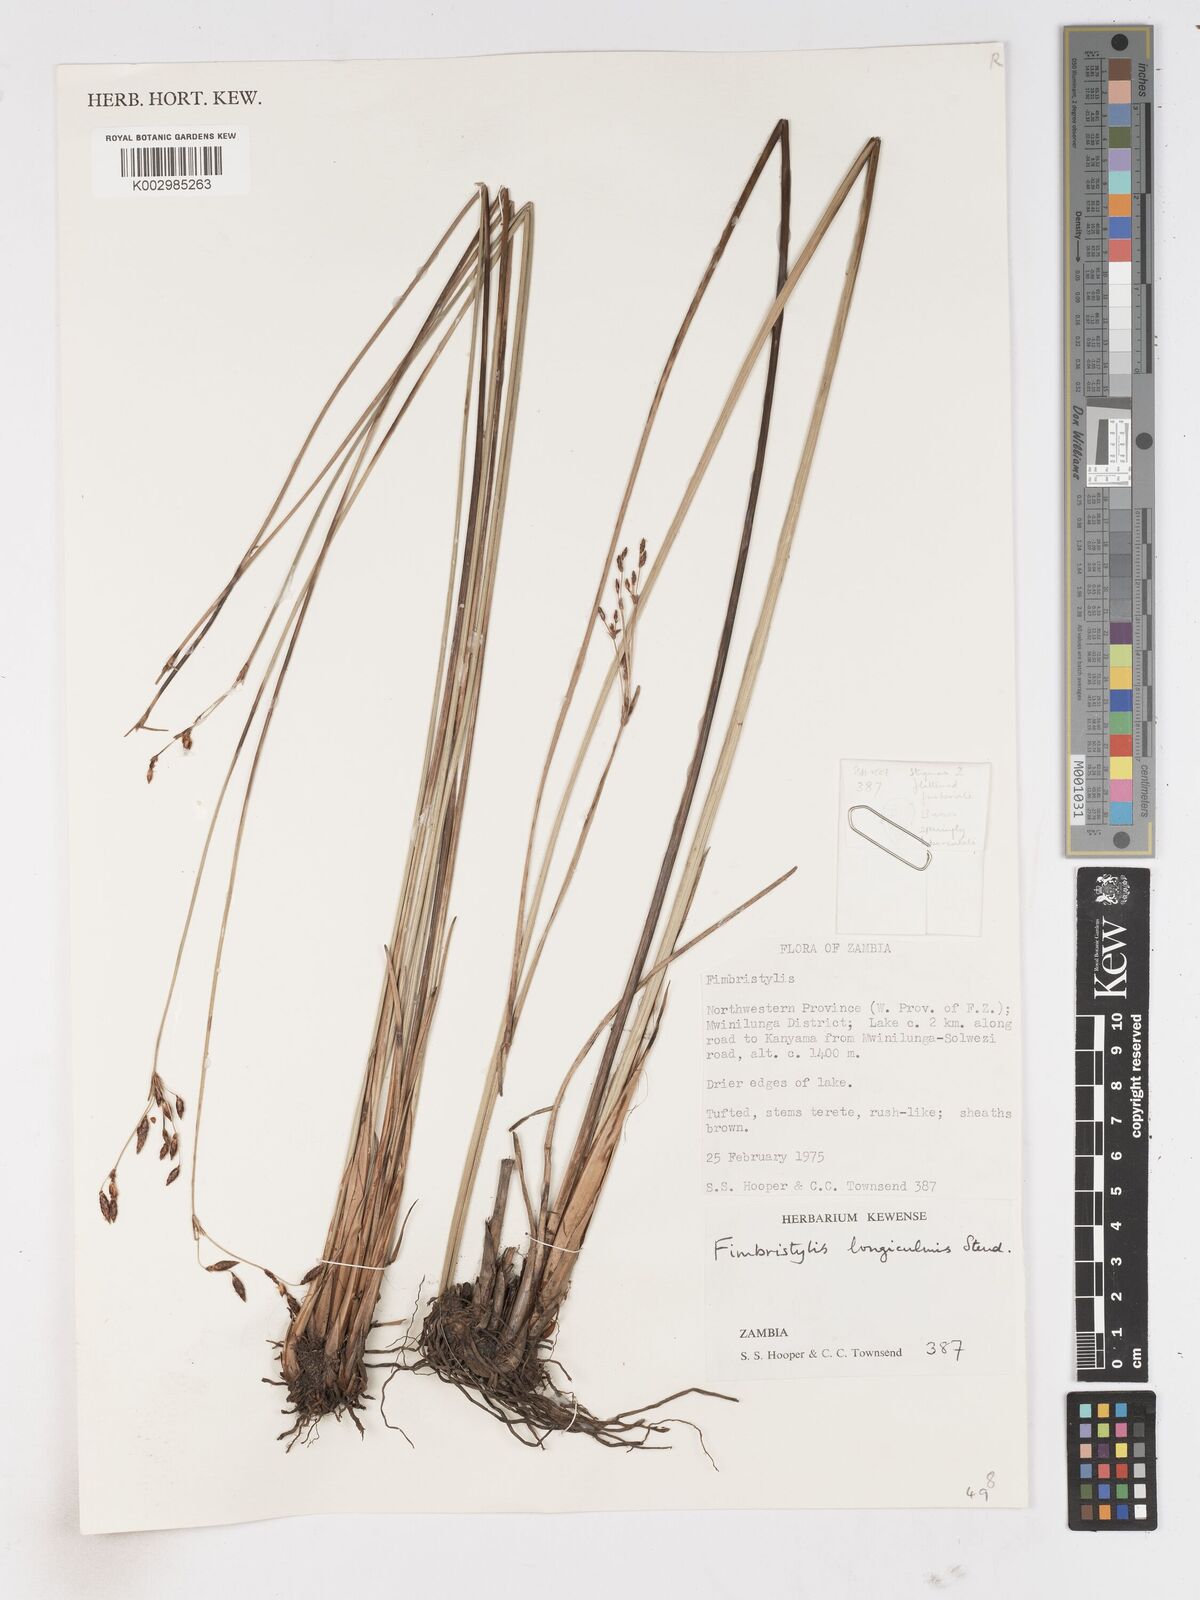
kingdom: Plantae
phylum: Tracheophyta
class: Liliopsida
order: Poales
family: Cyperaceae
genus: Fimbristylis
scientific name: Fimbristylis bivalvis
